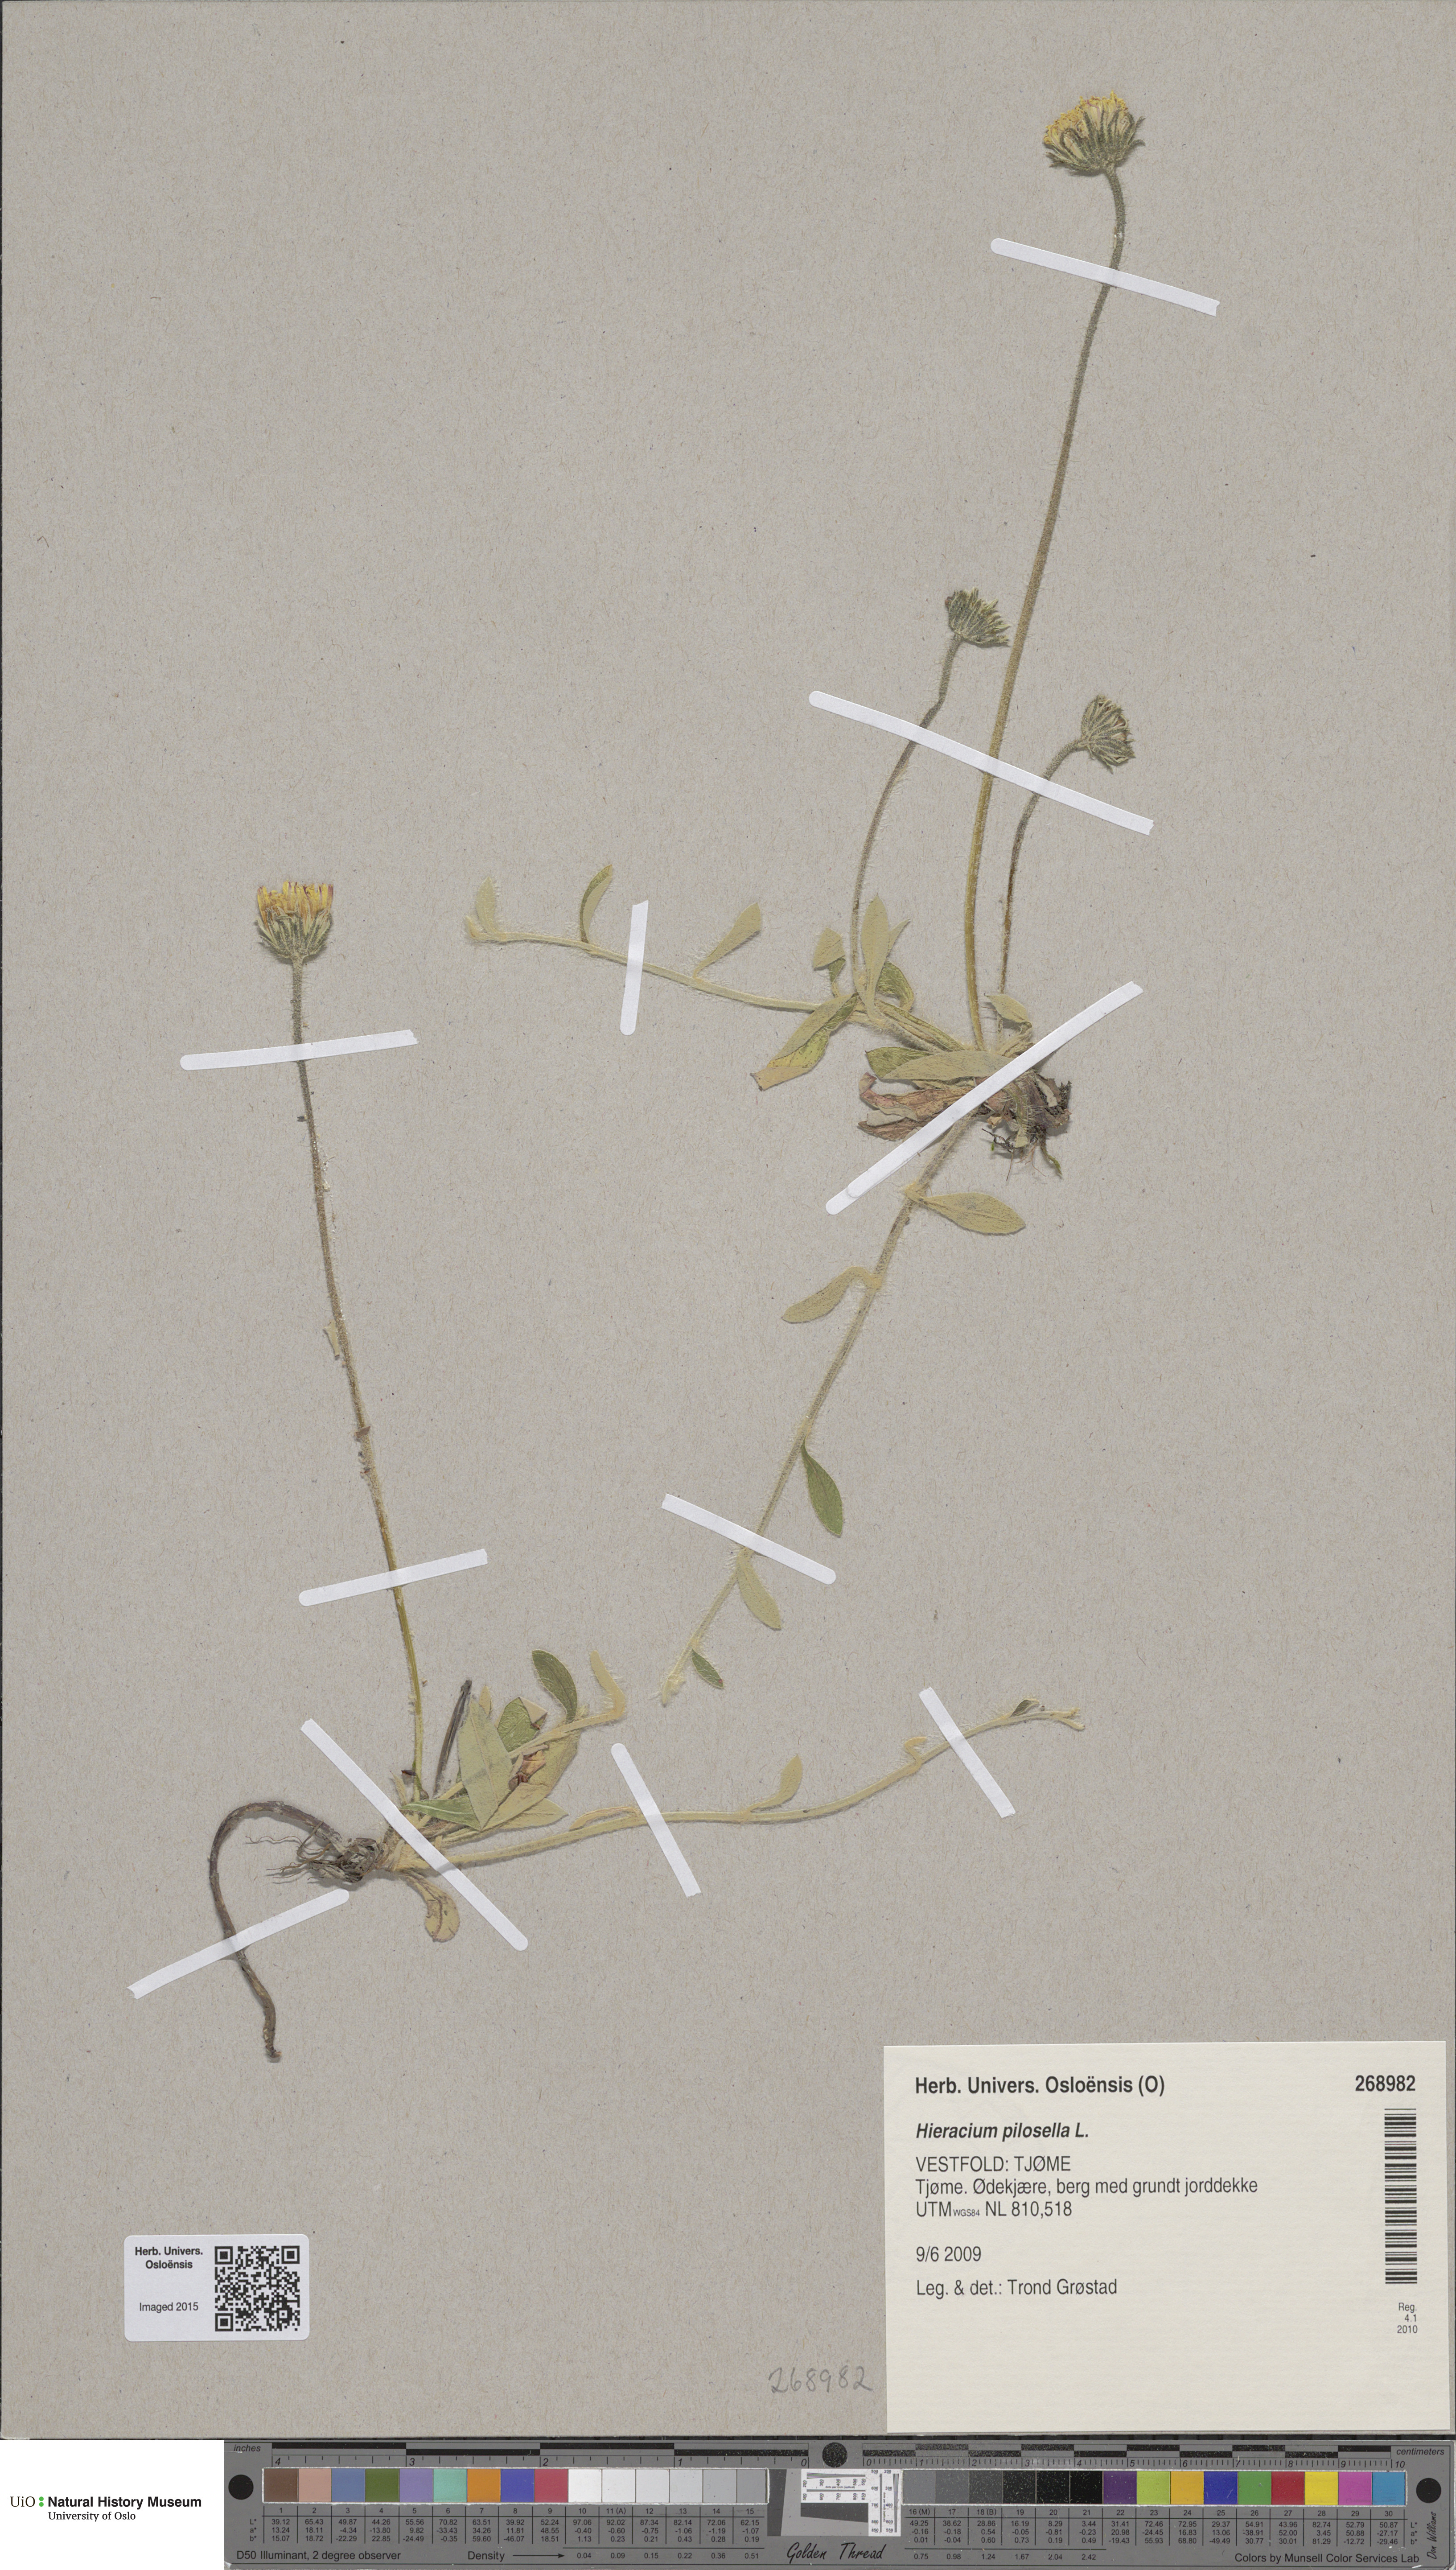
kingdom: Plantae
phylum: Tracheophyta
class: Magnoliopsida
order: Asterales
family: Asteraceae
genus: Pilosella
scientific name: Pilosella officinarum
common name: Mouse-ear hawkweed
